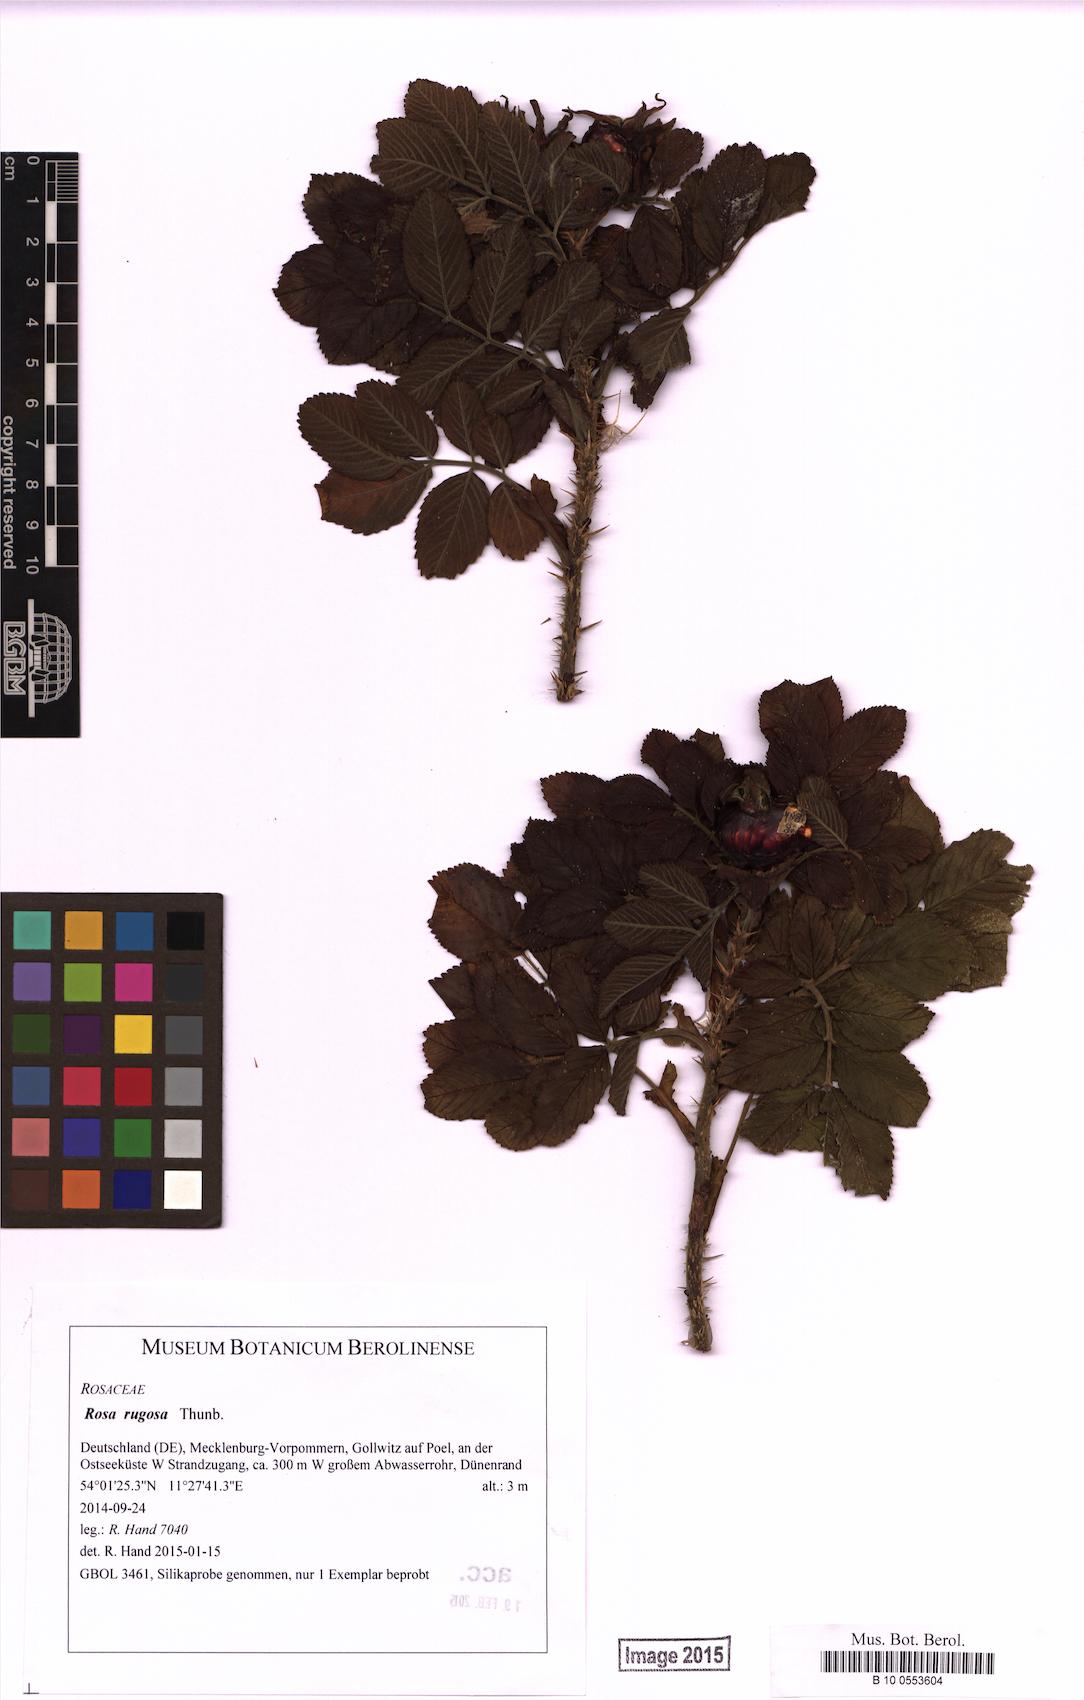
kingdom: Plantae
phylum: Tracheophyta
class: Magnoliopsida
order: Rosales
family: Rosaceae
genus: Rosa
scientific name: Rosa rugosa
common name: Japanese rose
